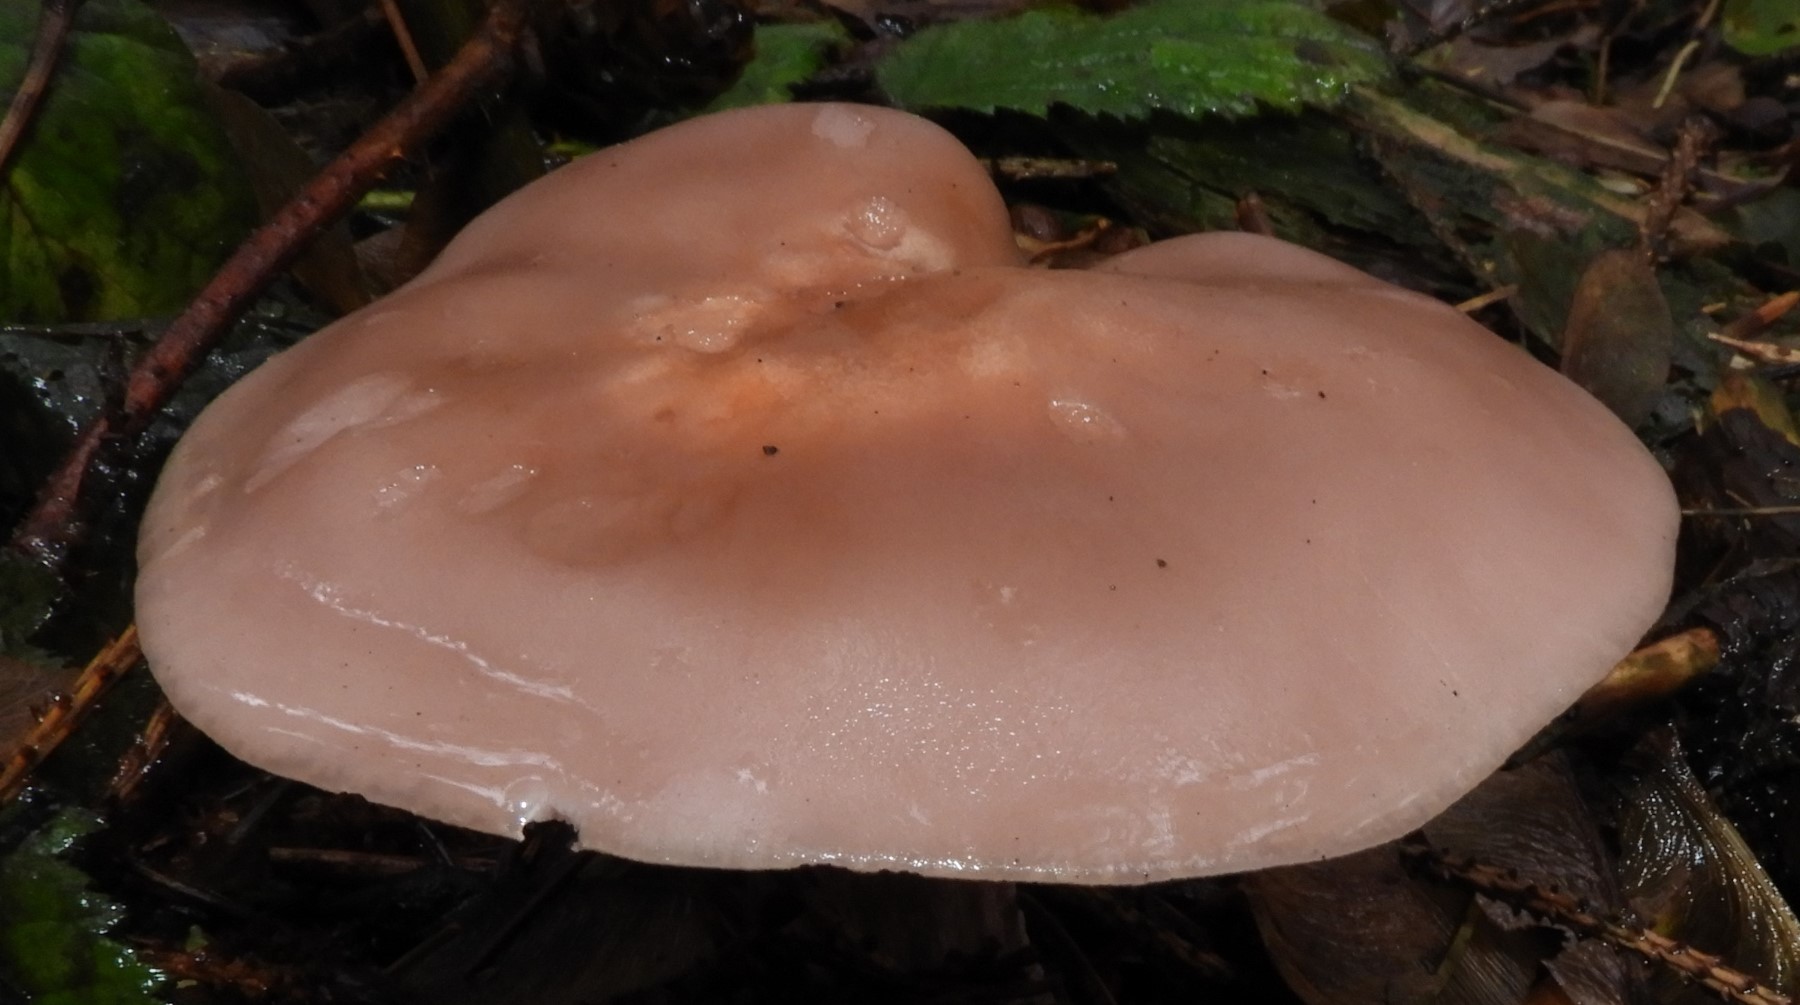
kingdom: Fungi
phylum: Basidiomycota
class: Agaricomycetes
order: Agaricales
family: Tricholomataceae
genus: Lepista
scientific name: Lepista nuda
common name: violet hekseringshat
